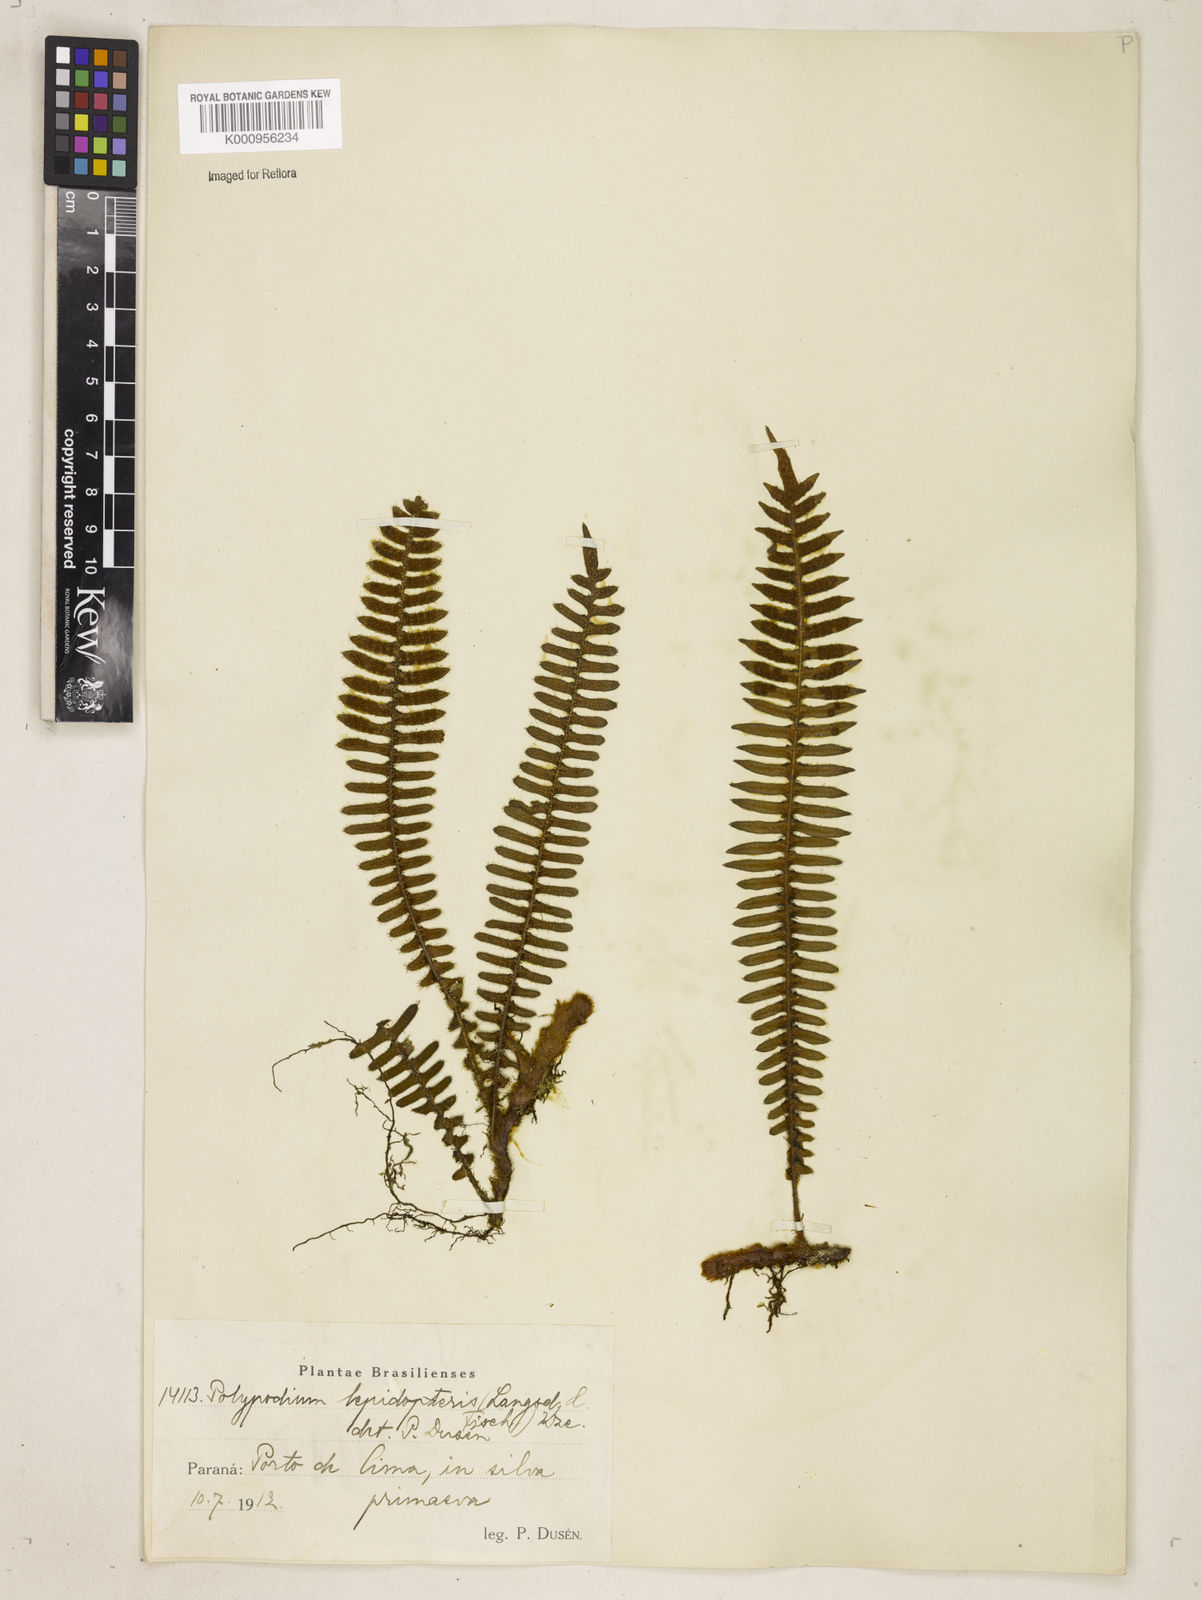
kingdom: Plantae
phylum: Tracheophyta
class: Polypodiopsida
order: Polypodiales
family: Polypodiaceae
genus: Pleopeltis
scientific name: Pleopeltis hirsutissima
